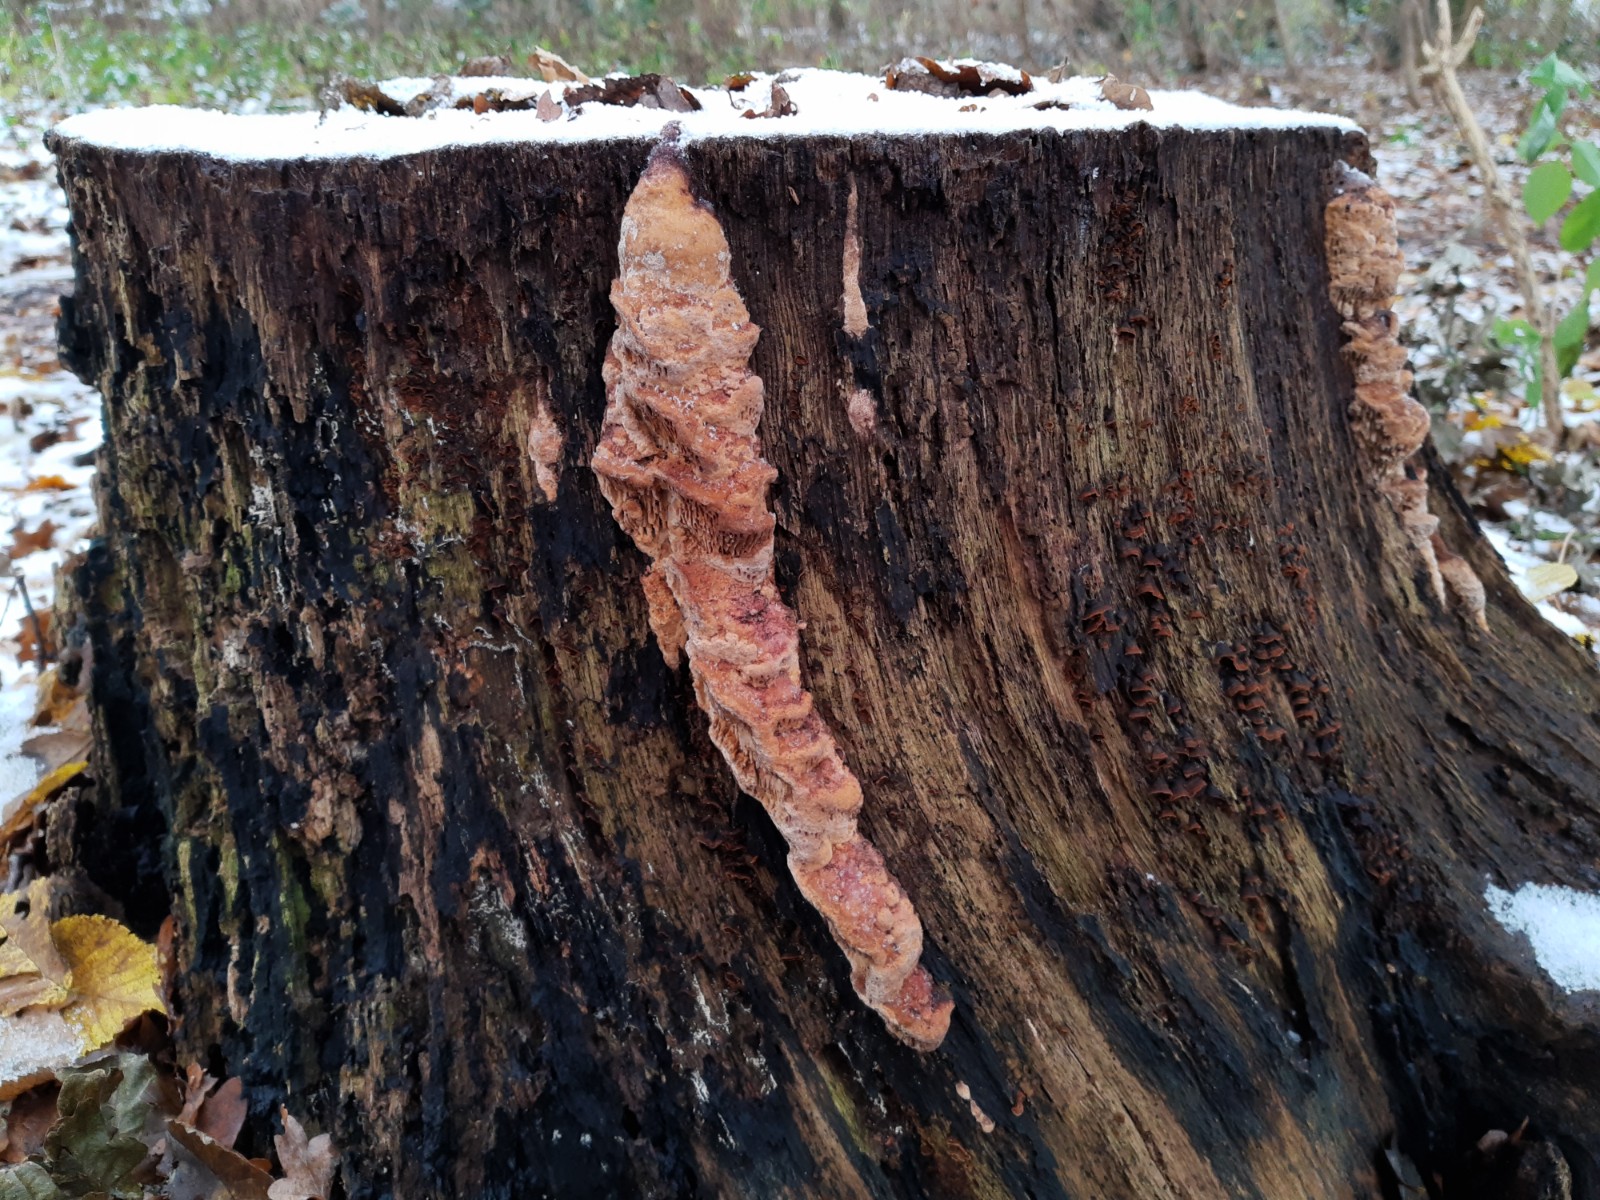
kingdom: Fungi
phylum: Basidiomycota
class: Agaricomycetes
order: Polyporales
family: Fomitopsidaceae
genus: Daedalea
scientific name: Daedalea quercina
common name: ege-labyrintsvamp
